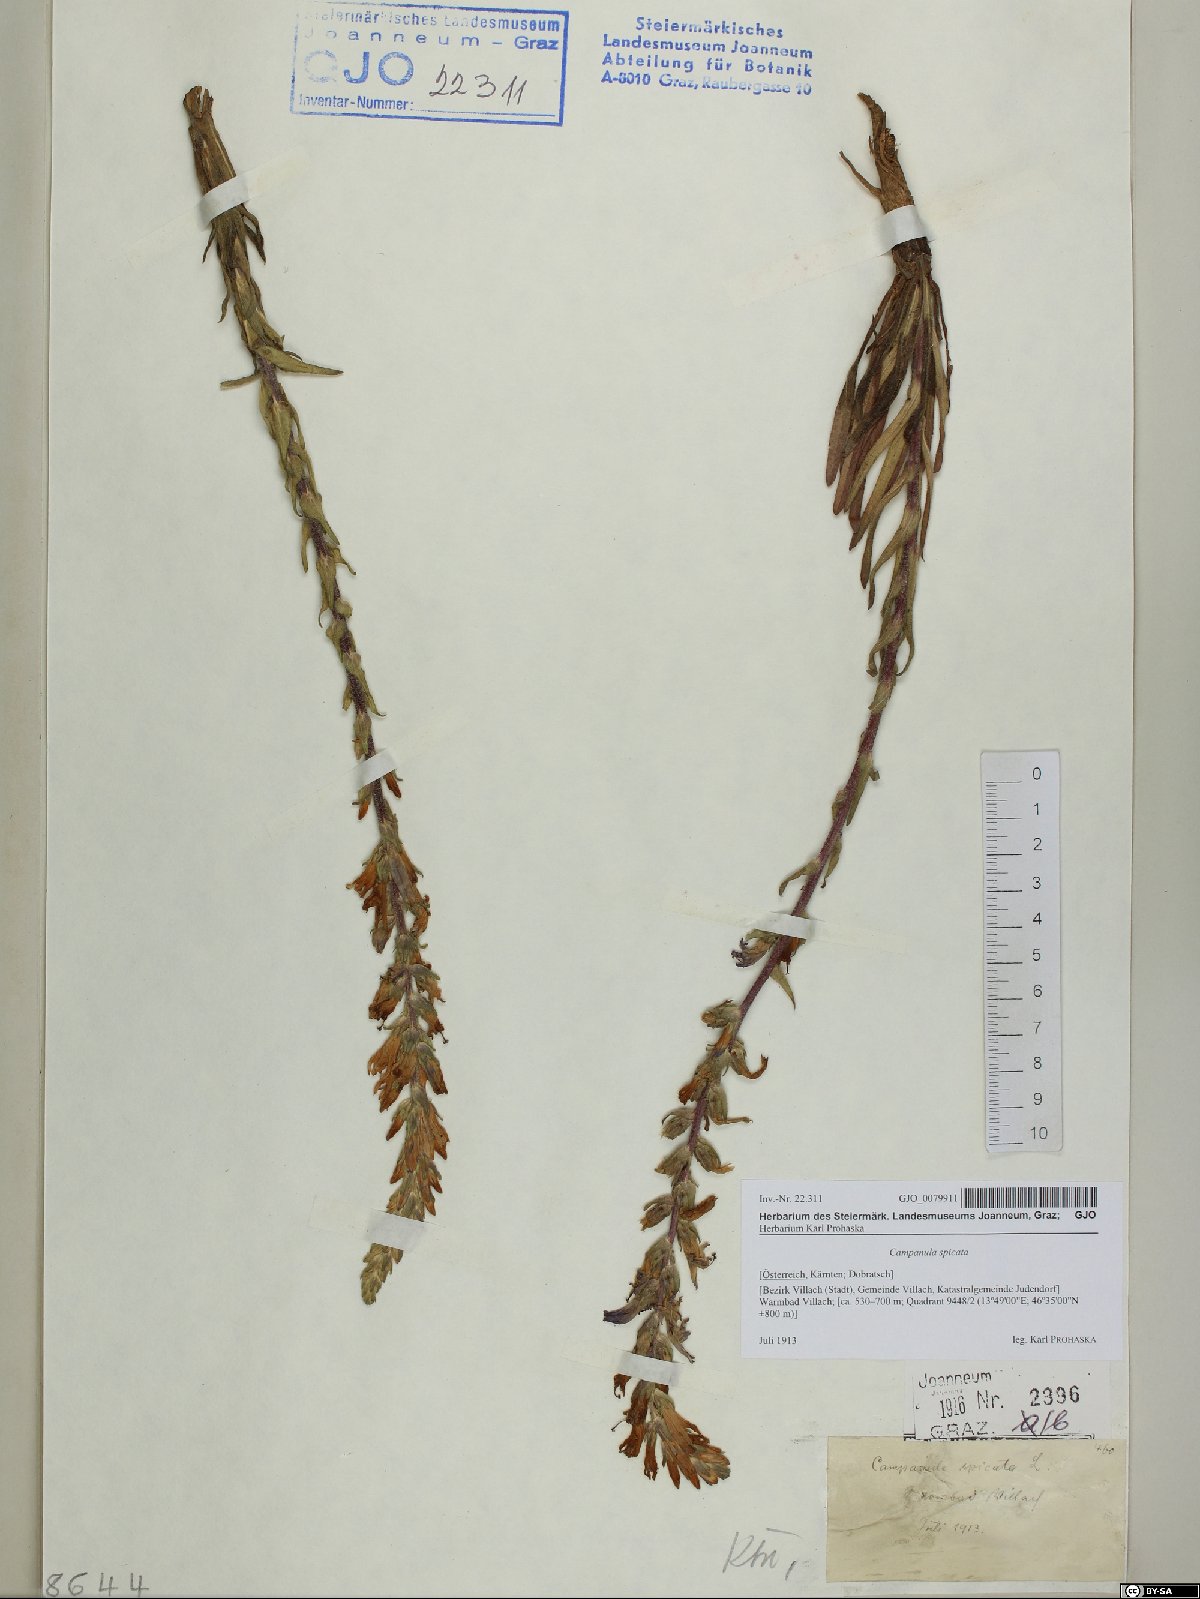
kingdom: Plantae
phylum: Tracheophyta
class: Magnoliopsida
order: Asterales
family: Campanulaceae
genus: Campanula
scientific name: Campanula spicata
